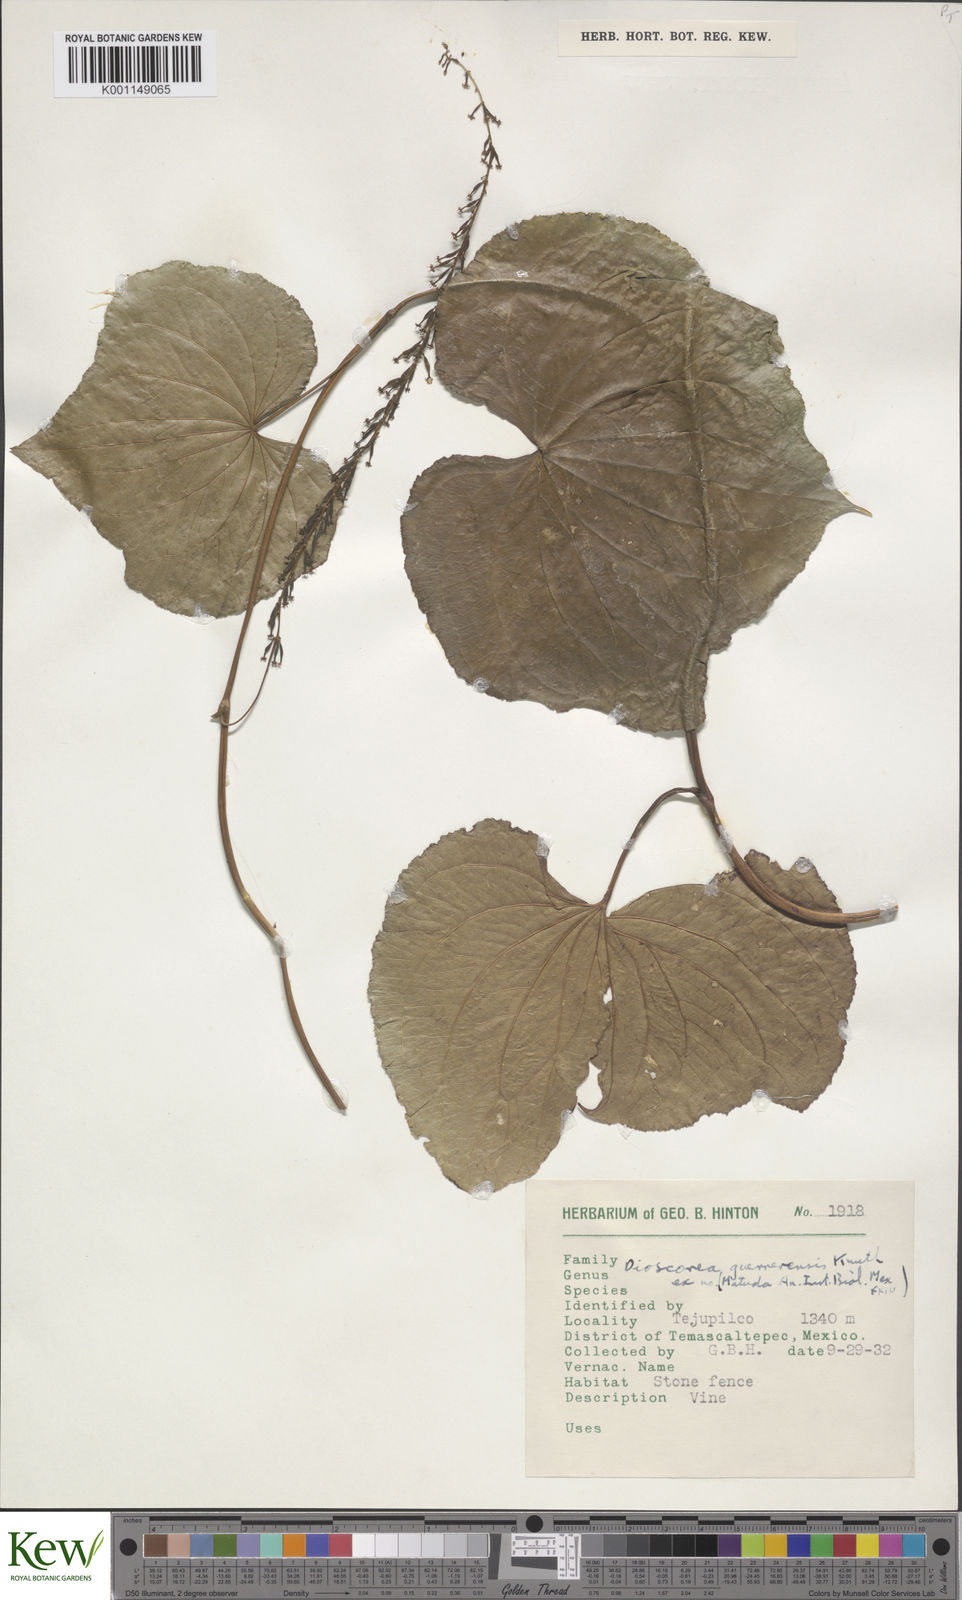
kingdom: Plantae
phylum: Tracheophyta
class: Liliopsida
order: Dioscoreales
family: Dioscoreaceae
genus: Dioscorea
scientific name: Dioscorea guerrerensis
